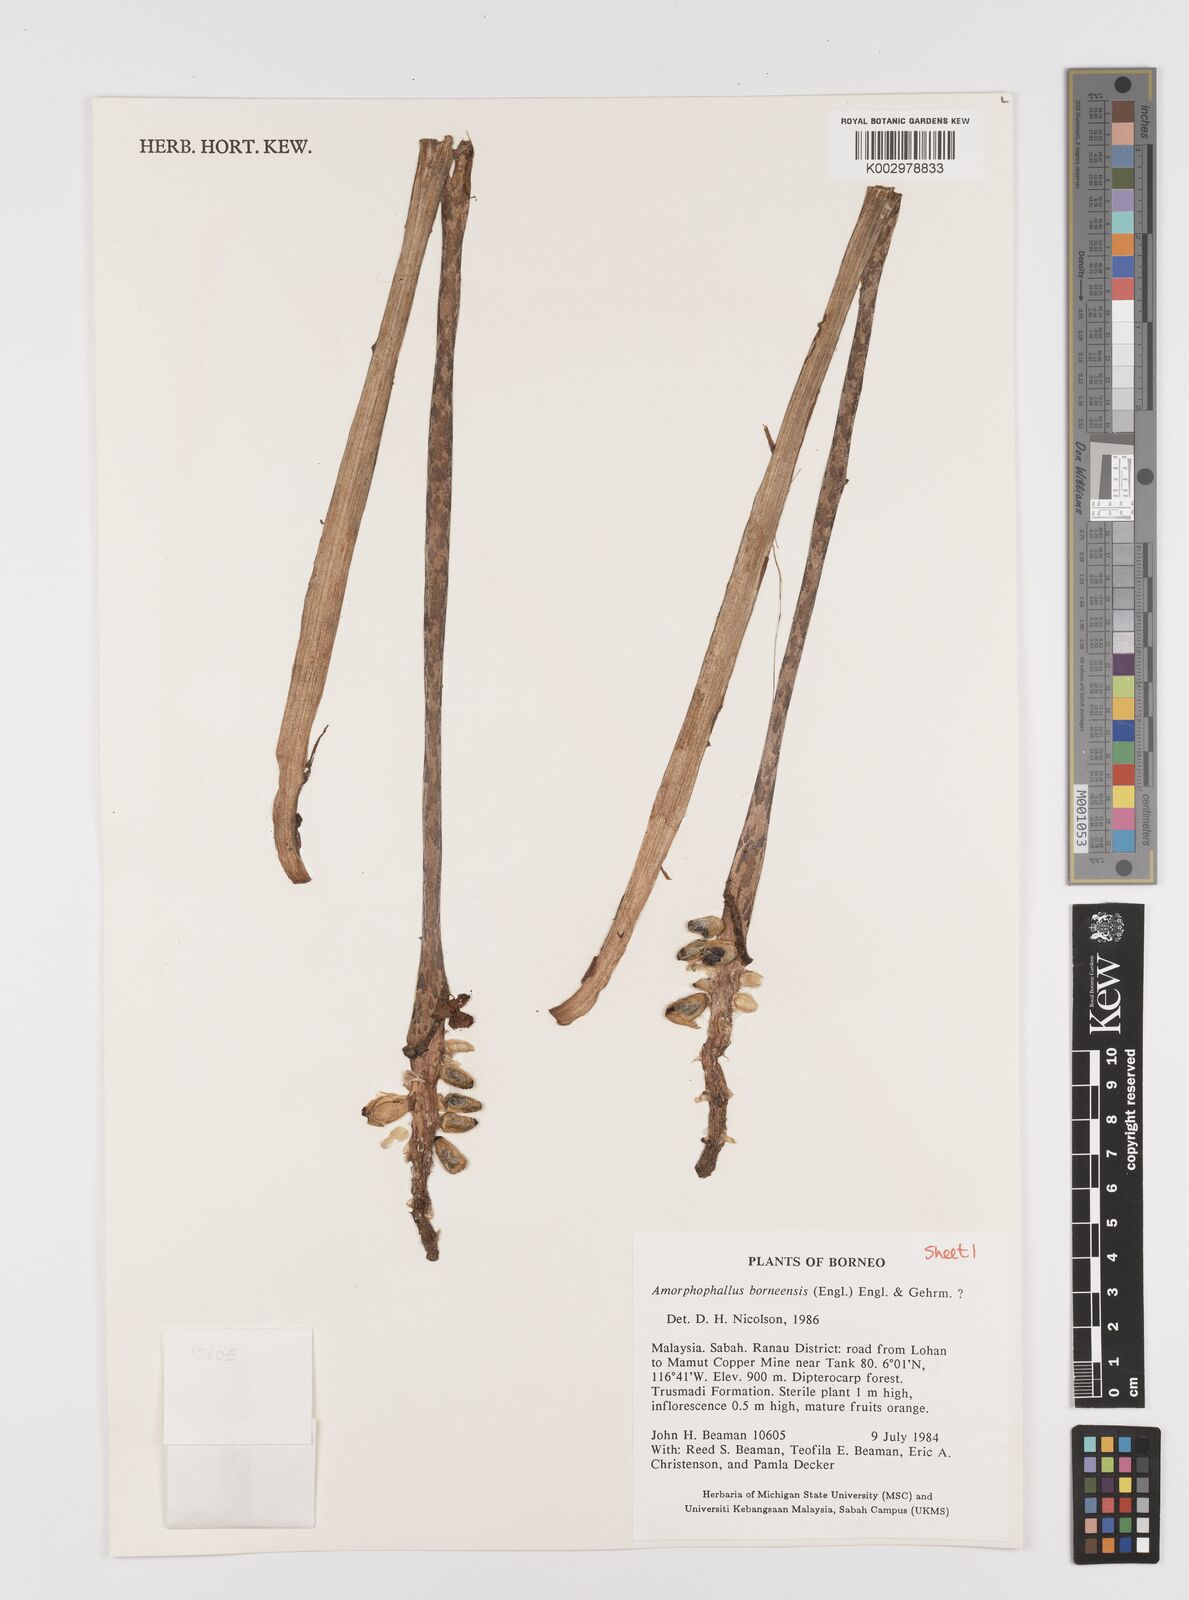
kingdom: Plantae
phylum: Tracheophyta
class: Liliopsida
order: Alismatales
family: Araceae
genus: Amorphophallus
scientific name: Amorphophallus
